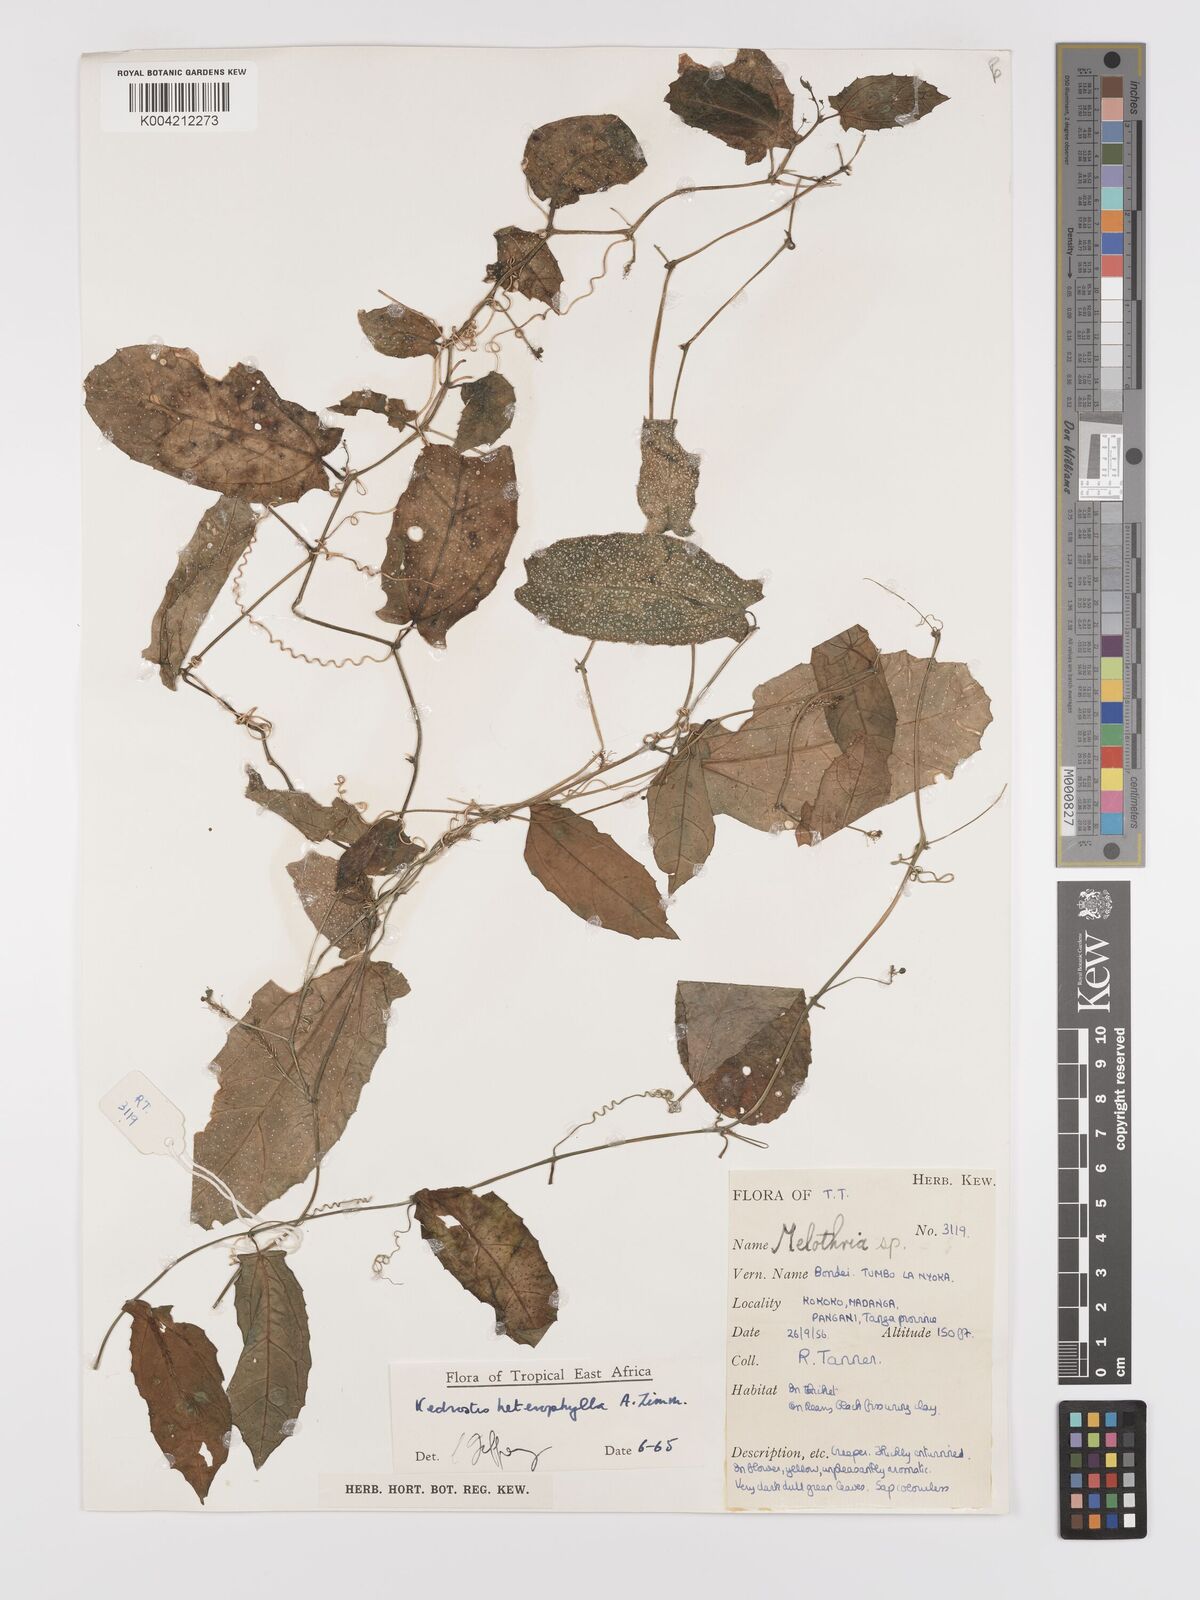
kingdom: Plantae
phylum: Tracheophyta
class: Magnoliopsida
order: Cucurbitales
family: Cucurbitaceae
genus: Kedrostis
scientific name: Kedrostis heterophylla
